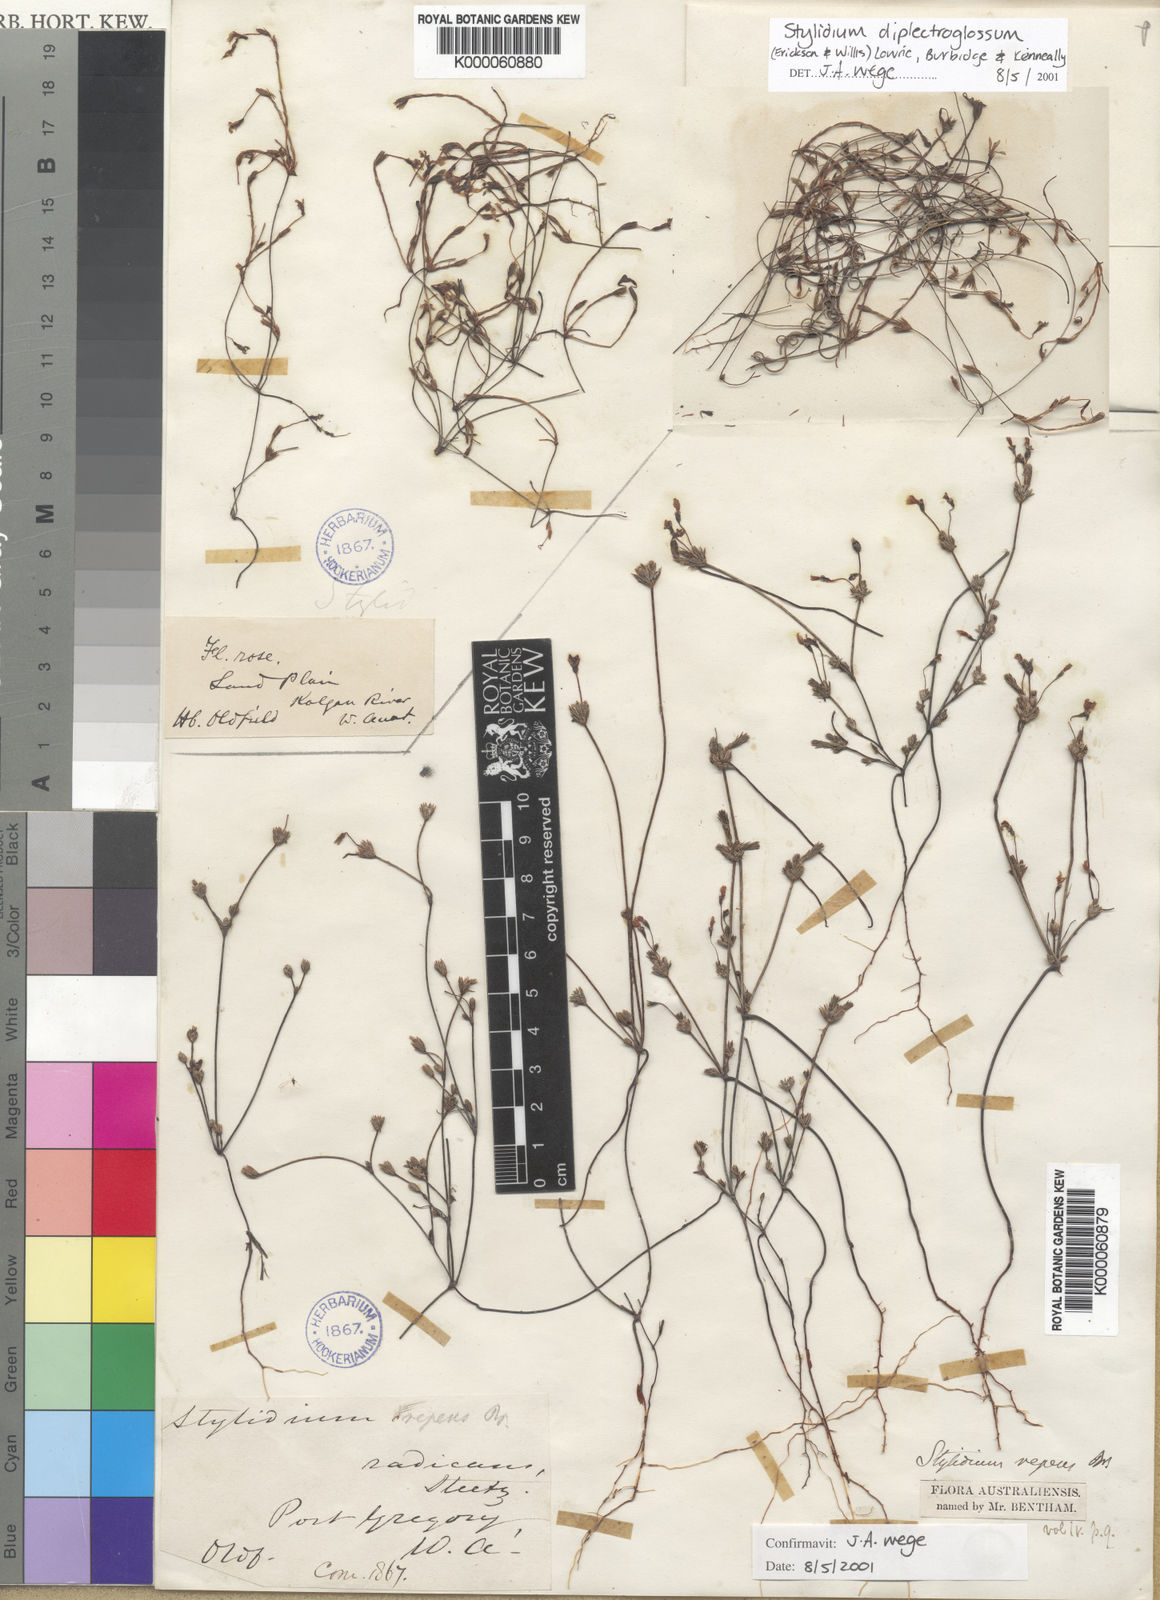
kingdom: Plantae
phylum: Tracheophyta
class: Magnoliopsida
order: Asterales
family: Stylidiaceae
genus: Stylidium
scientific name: Stylidium
